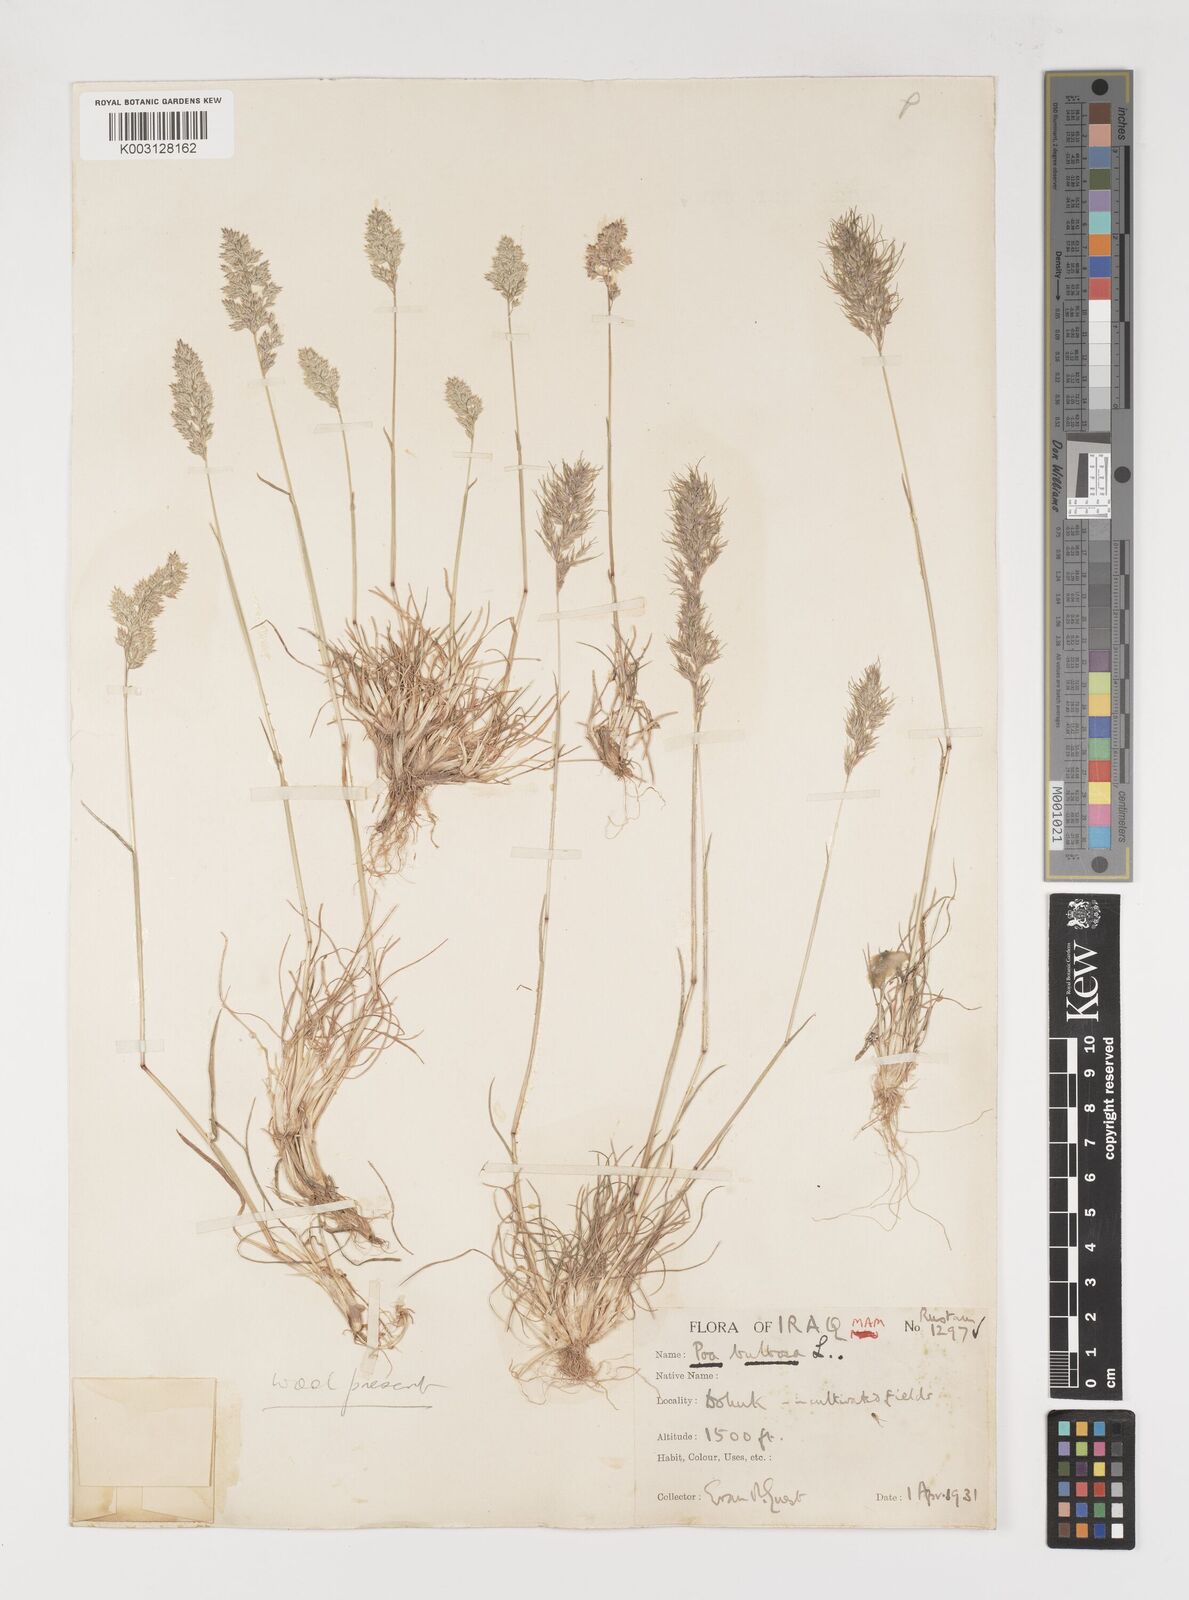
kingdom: Plantae
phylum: Tracheophyta
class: Liliopsida
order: Poales
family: Poaceae
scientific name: Poaceae
